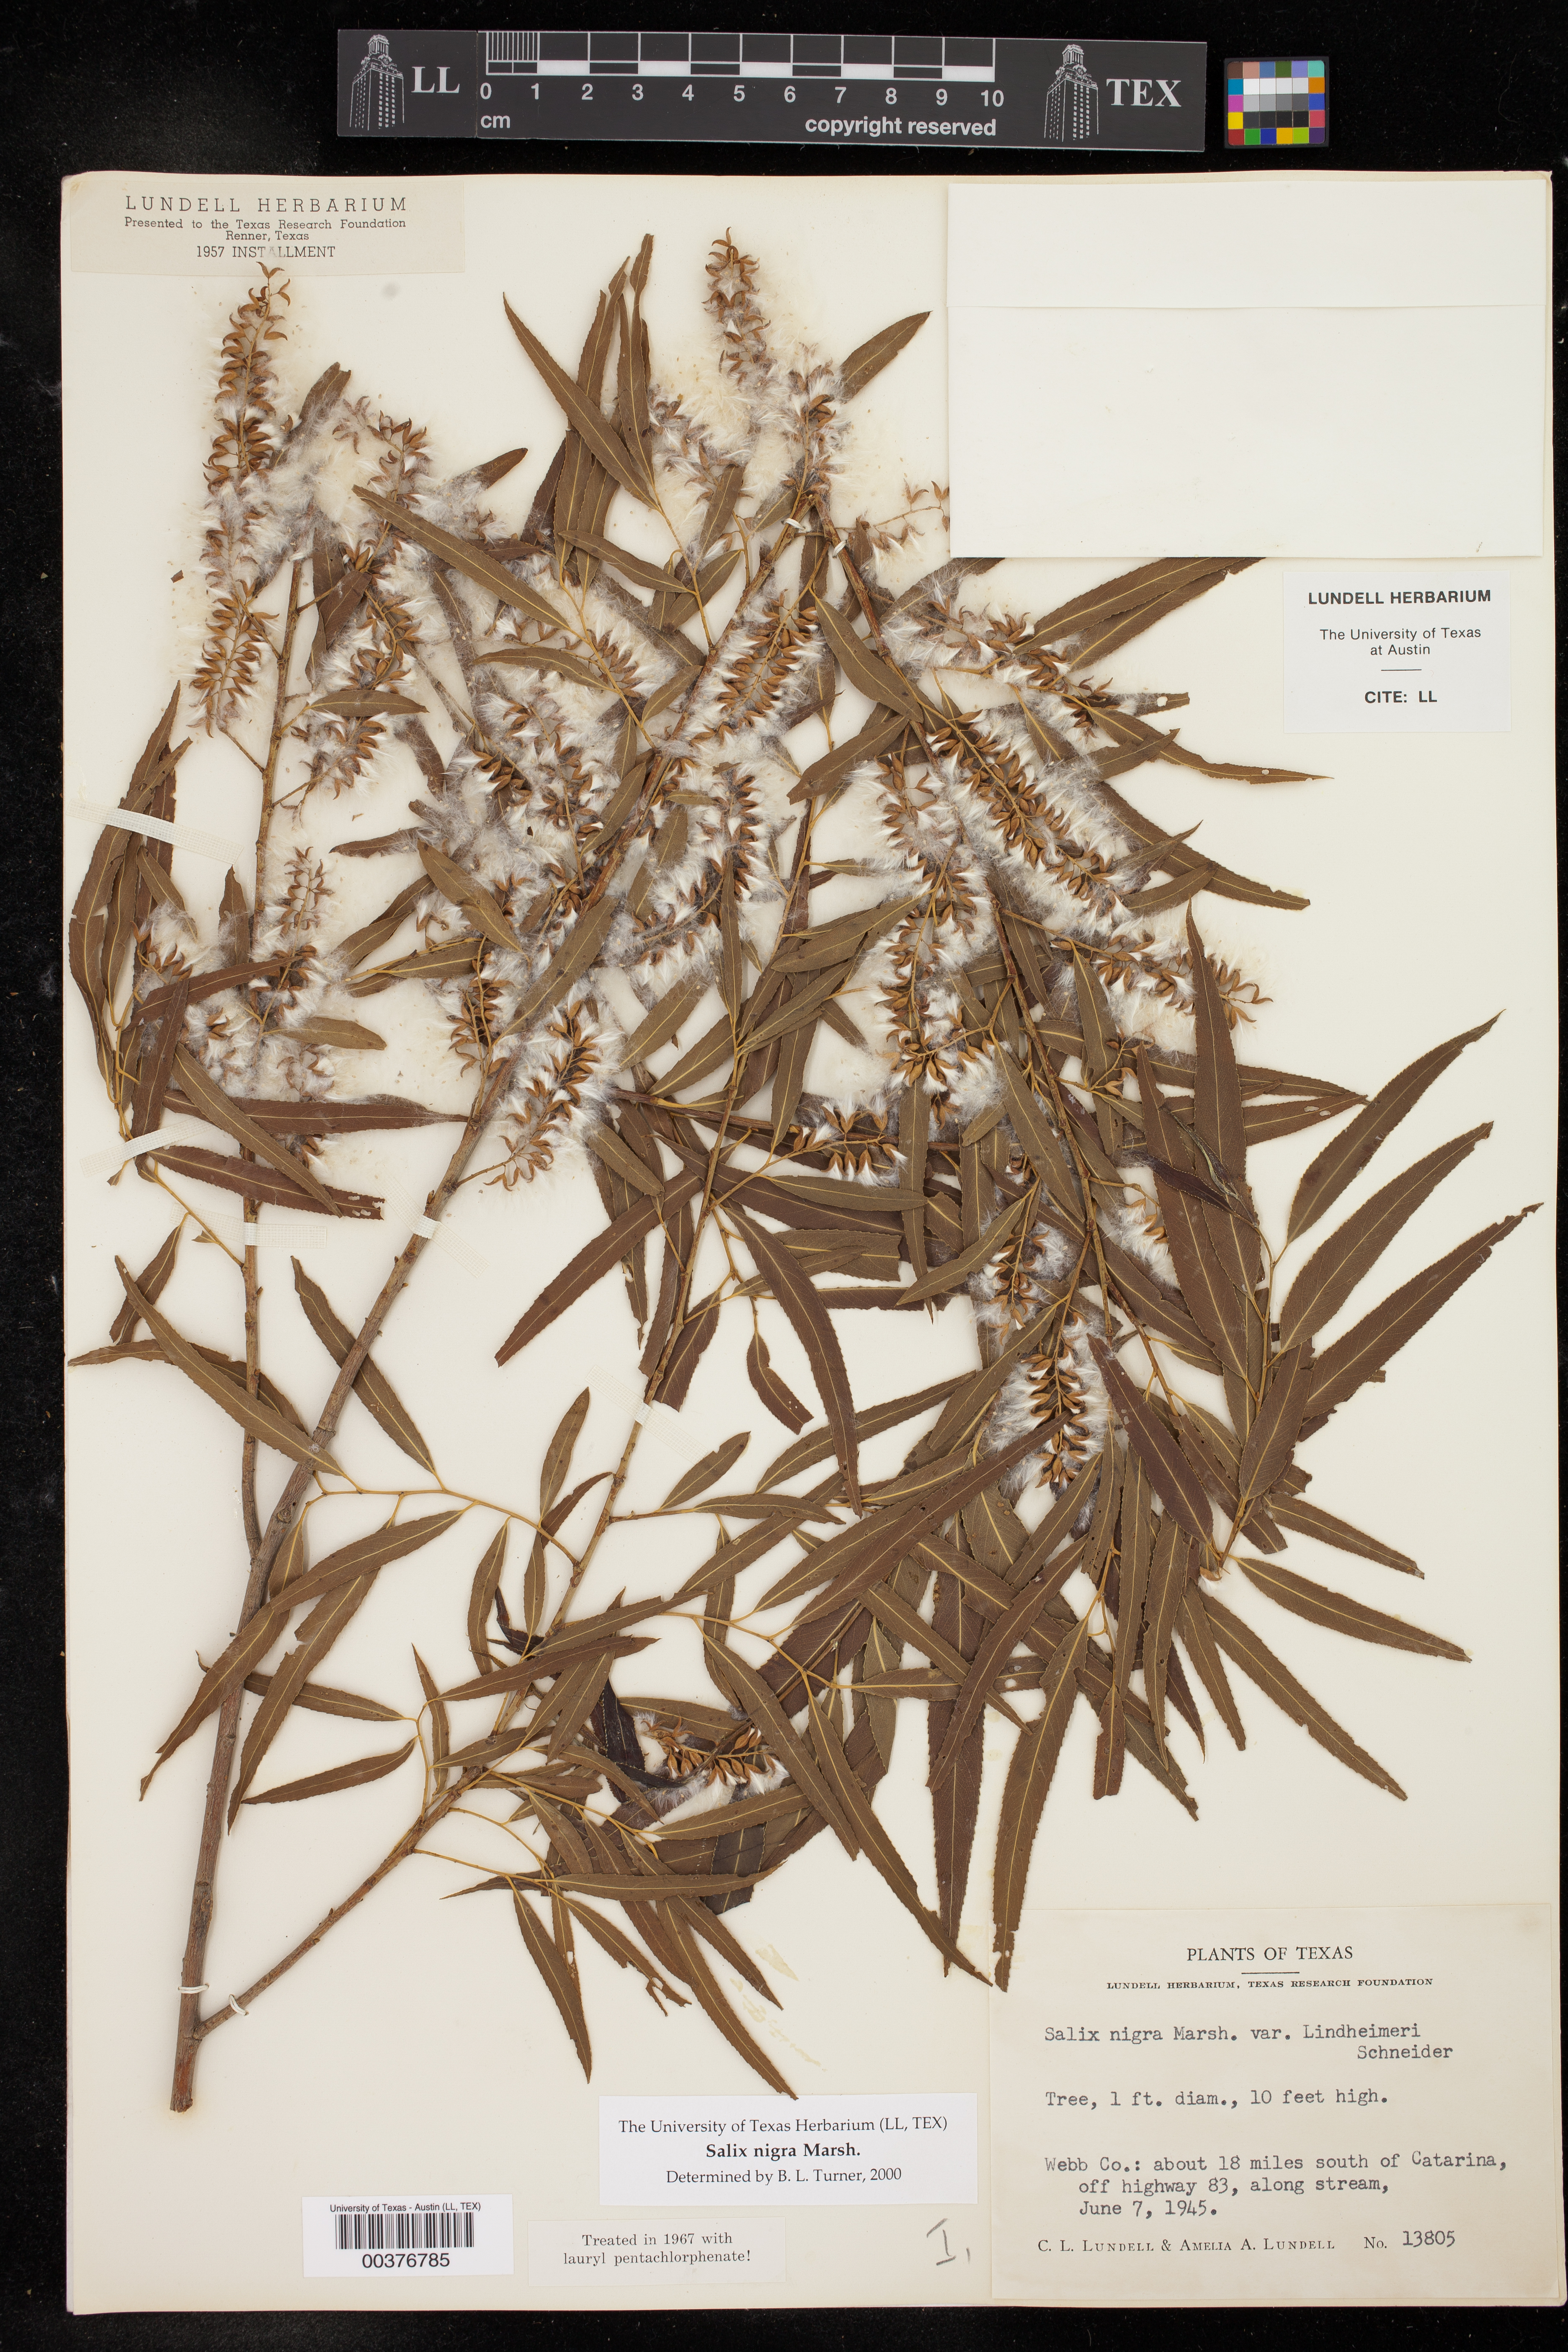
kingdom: Plantae
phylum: Tracheophyta
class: Magnoliopsida
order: Malpighiales
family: Salicaceae
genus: Salix
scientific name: Salix nigra
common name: Black willow
